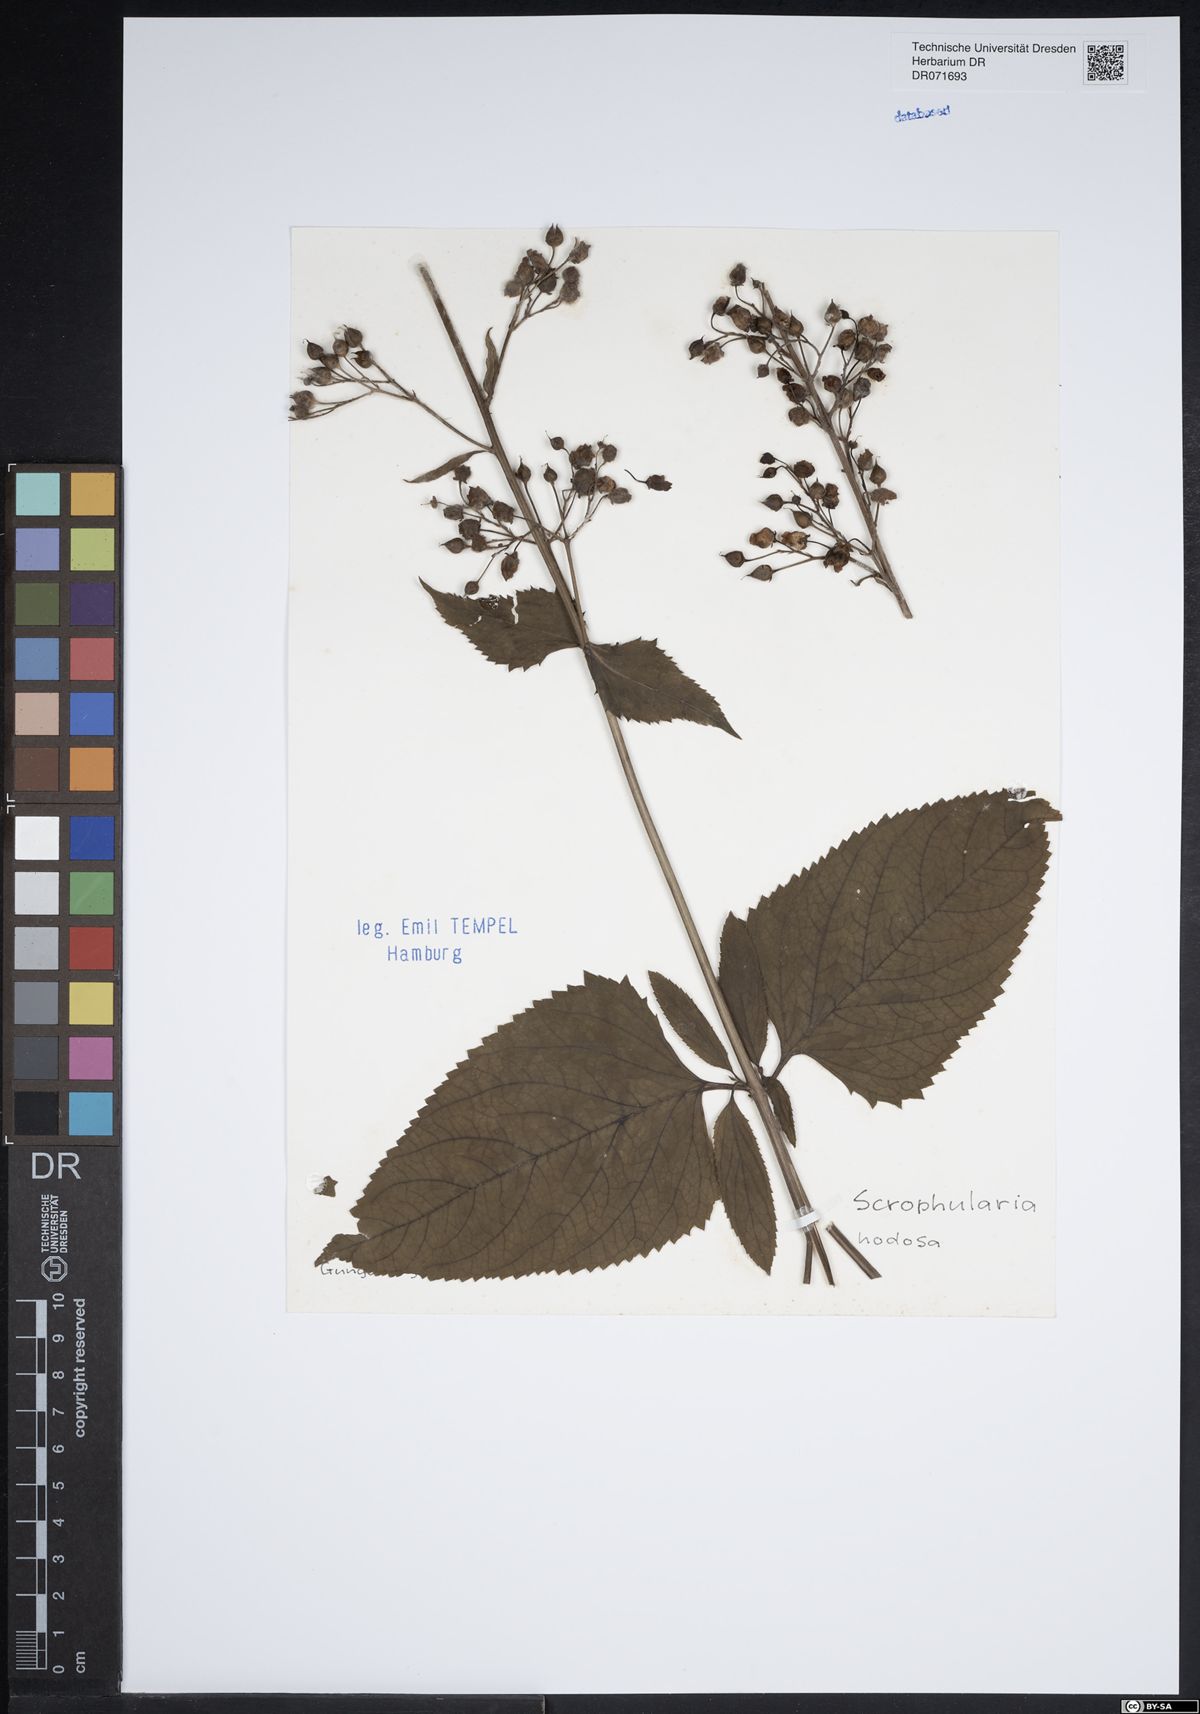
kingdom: Plantae
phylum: Tracheophyta
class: Magnoliopsida
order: Lamiales
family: Scrophulariaceae
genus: Scrophularia
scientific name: Scrophularia nodosa
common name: Common figwort
